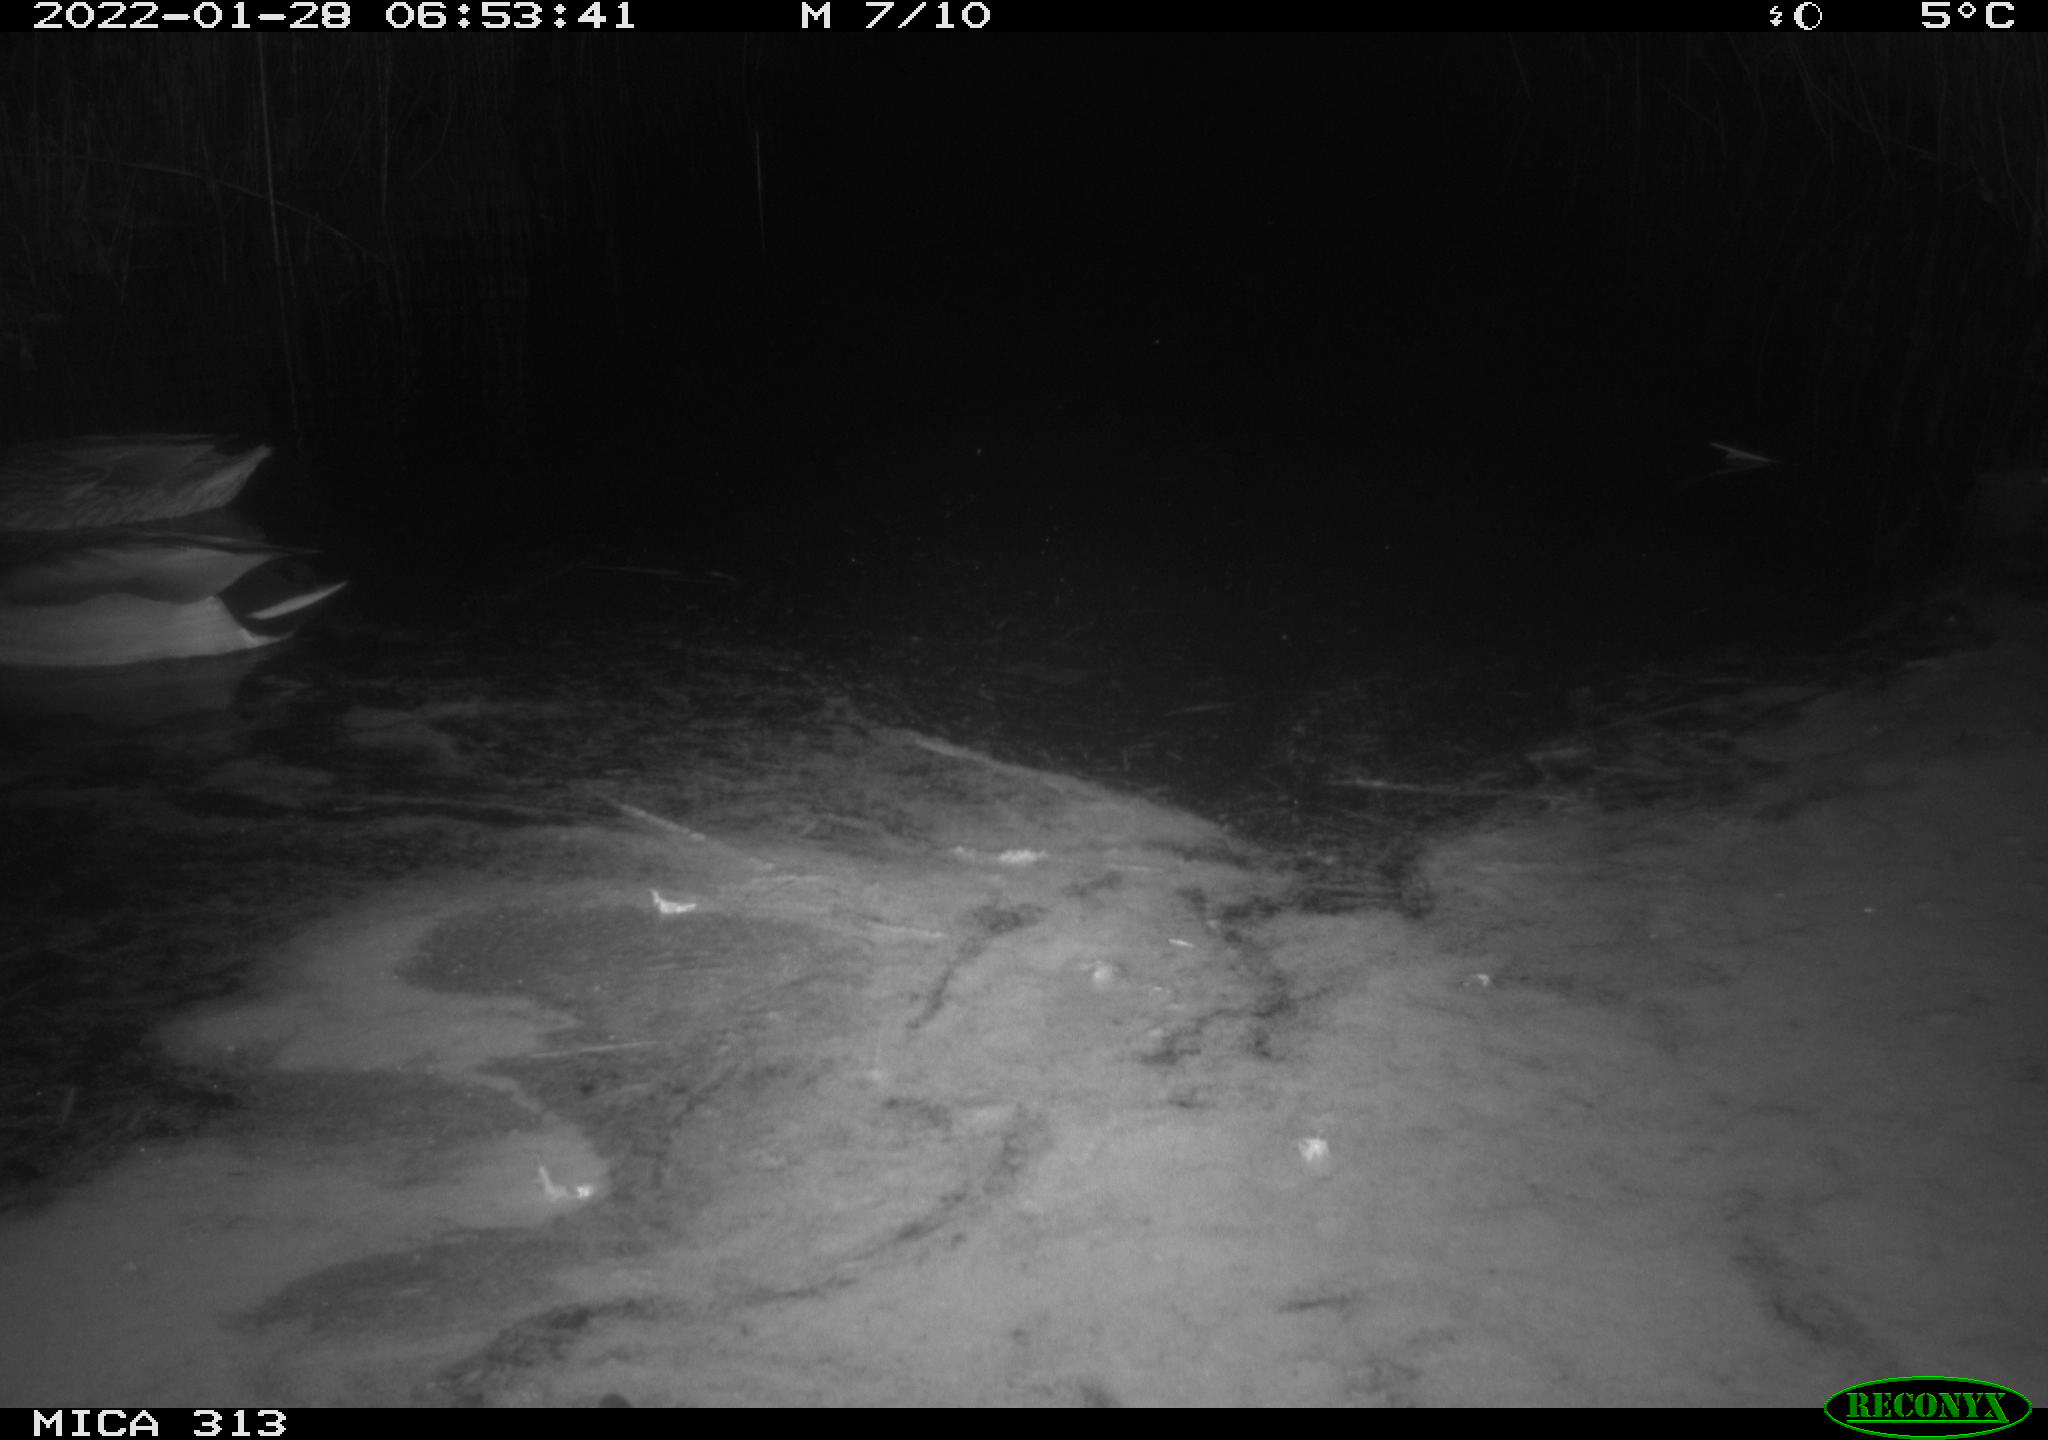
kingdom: Animalia
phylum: Chordata
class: Aves
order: Anseriformes
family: Anatidae
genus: Anas
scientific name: Anas
